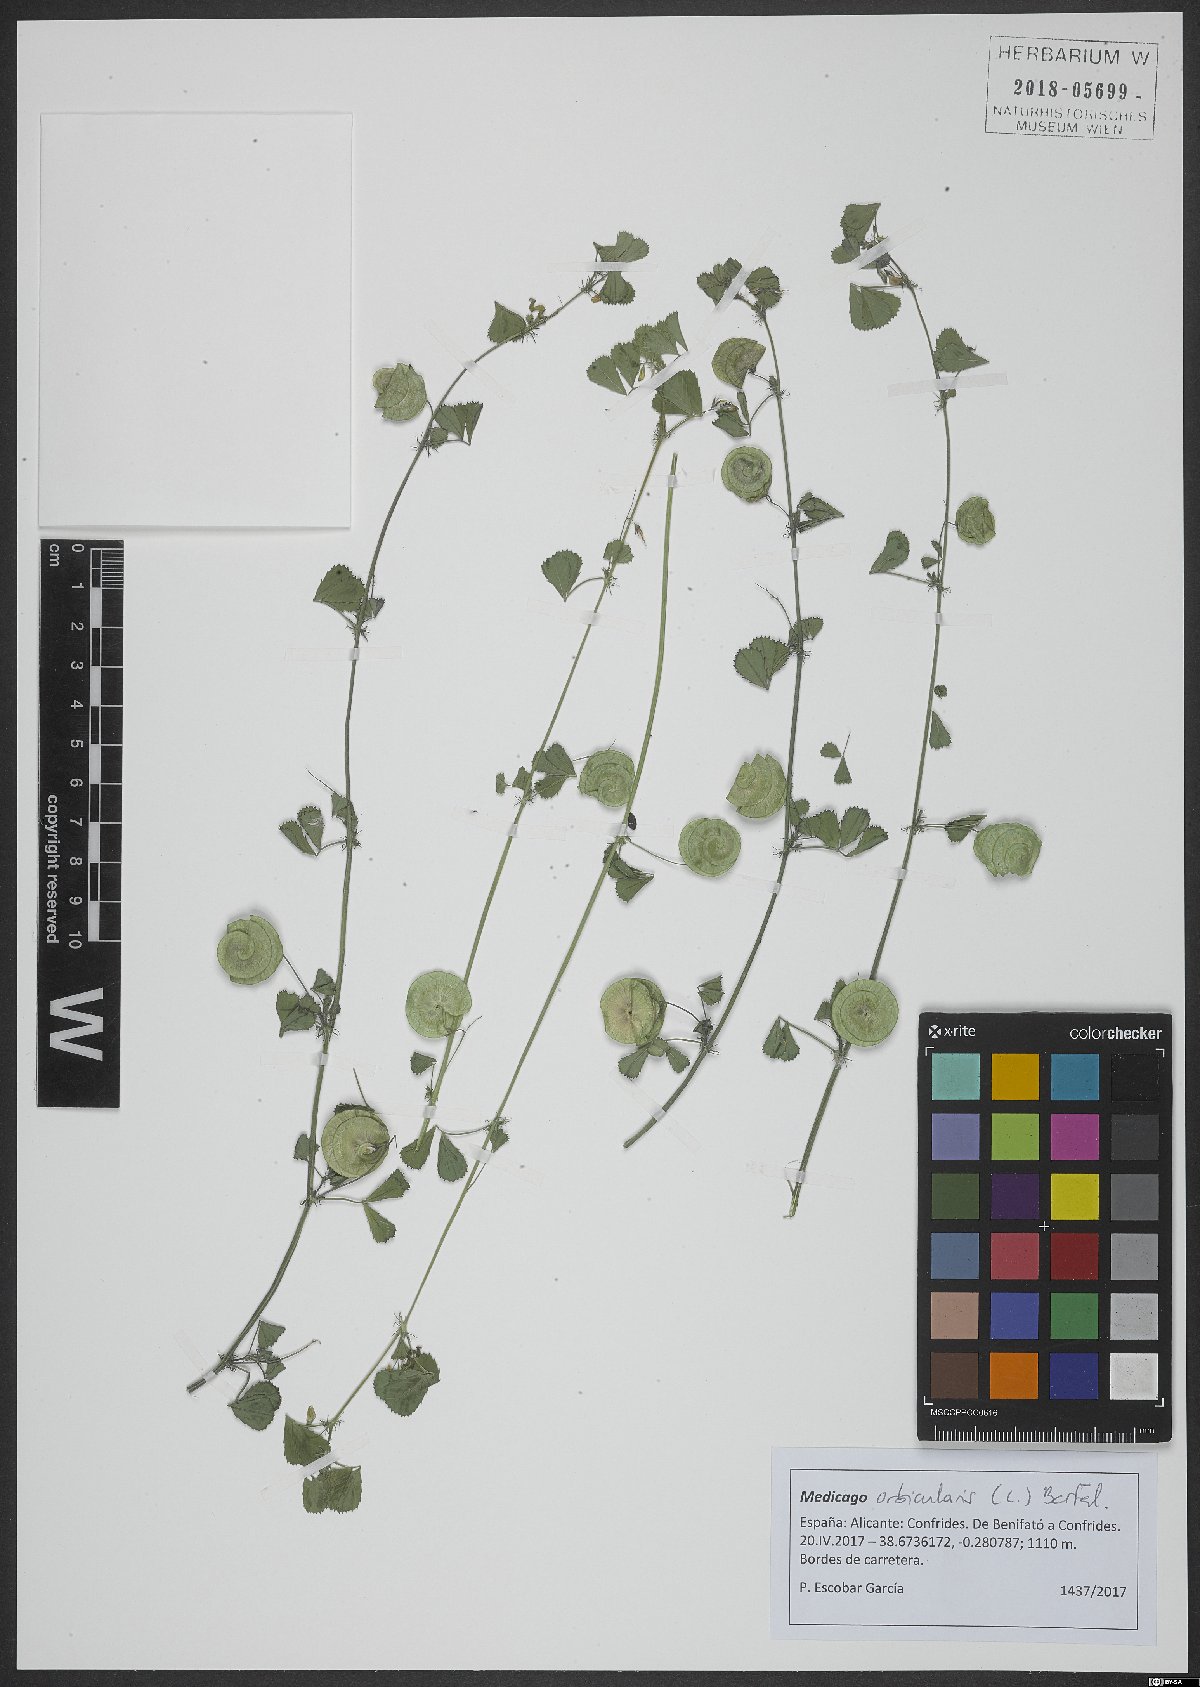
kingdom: Plantae
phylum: Tracheophyta
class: Magnoliopsida
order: Fabales
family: Fabaceae
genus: Medicago
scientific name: Medicago orbicularis
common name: Button medick
